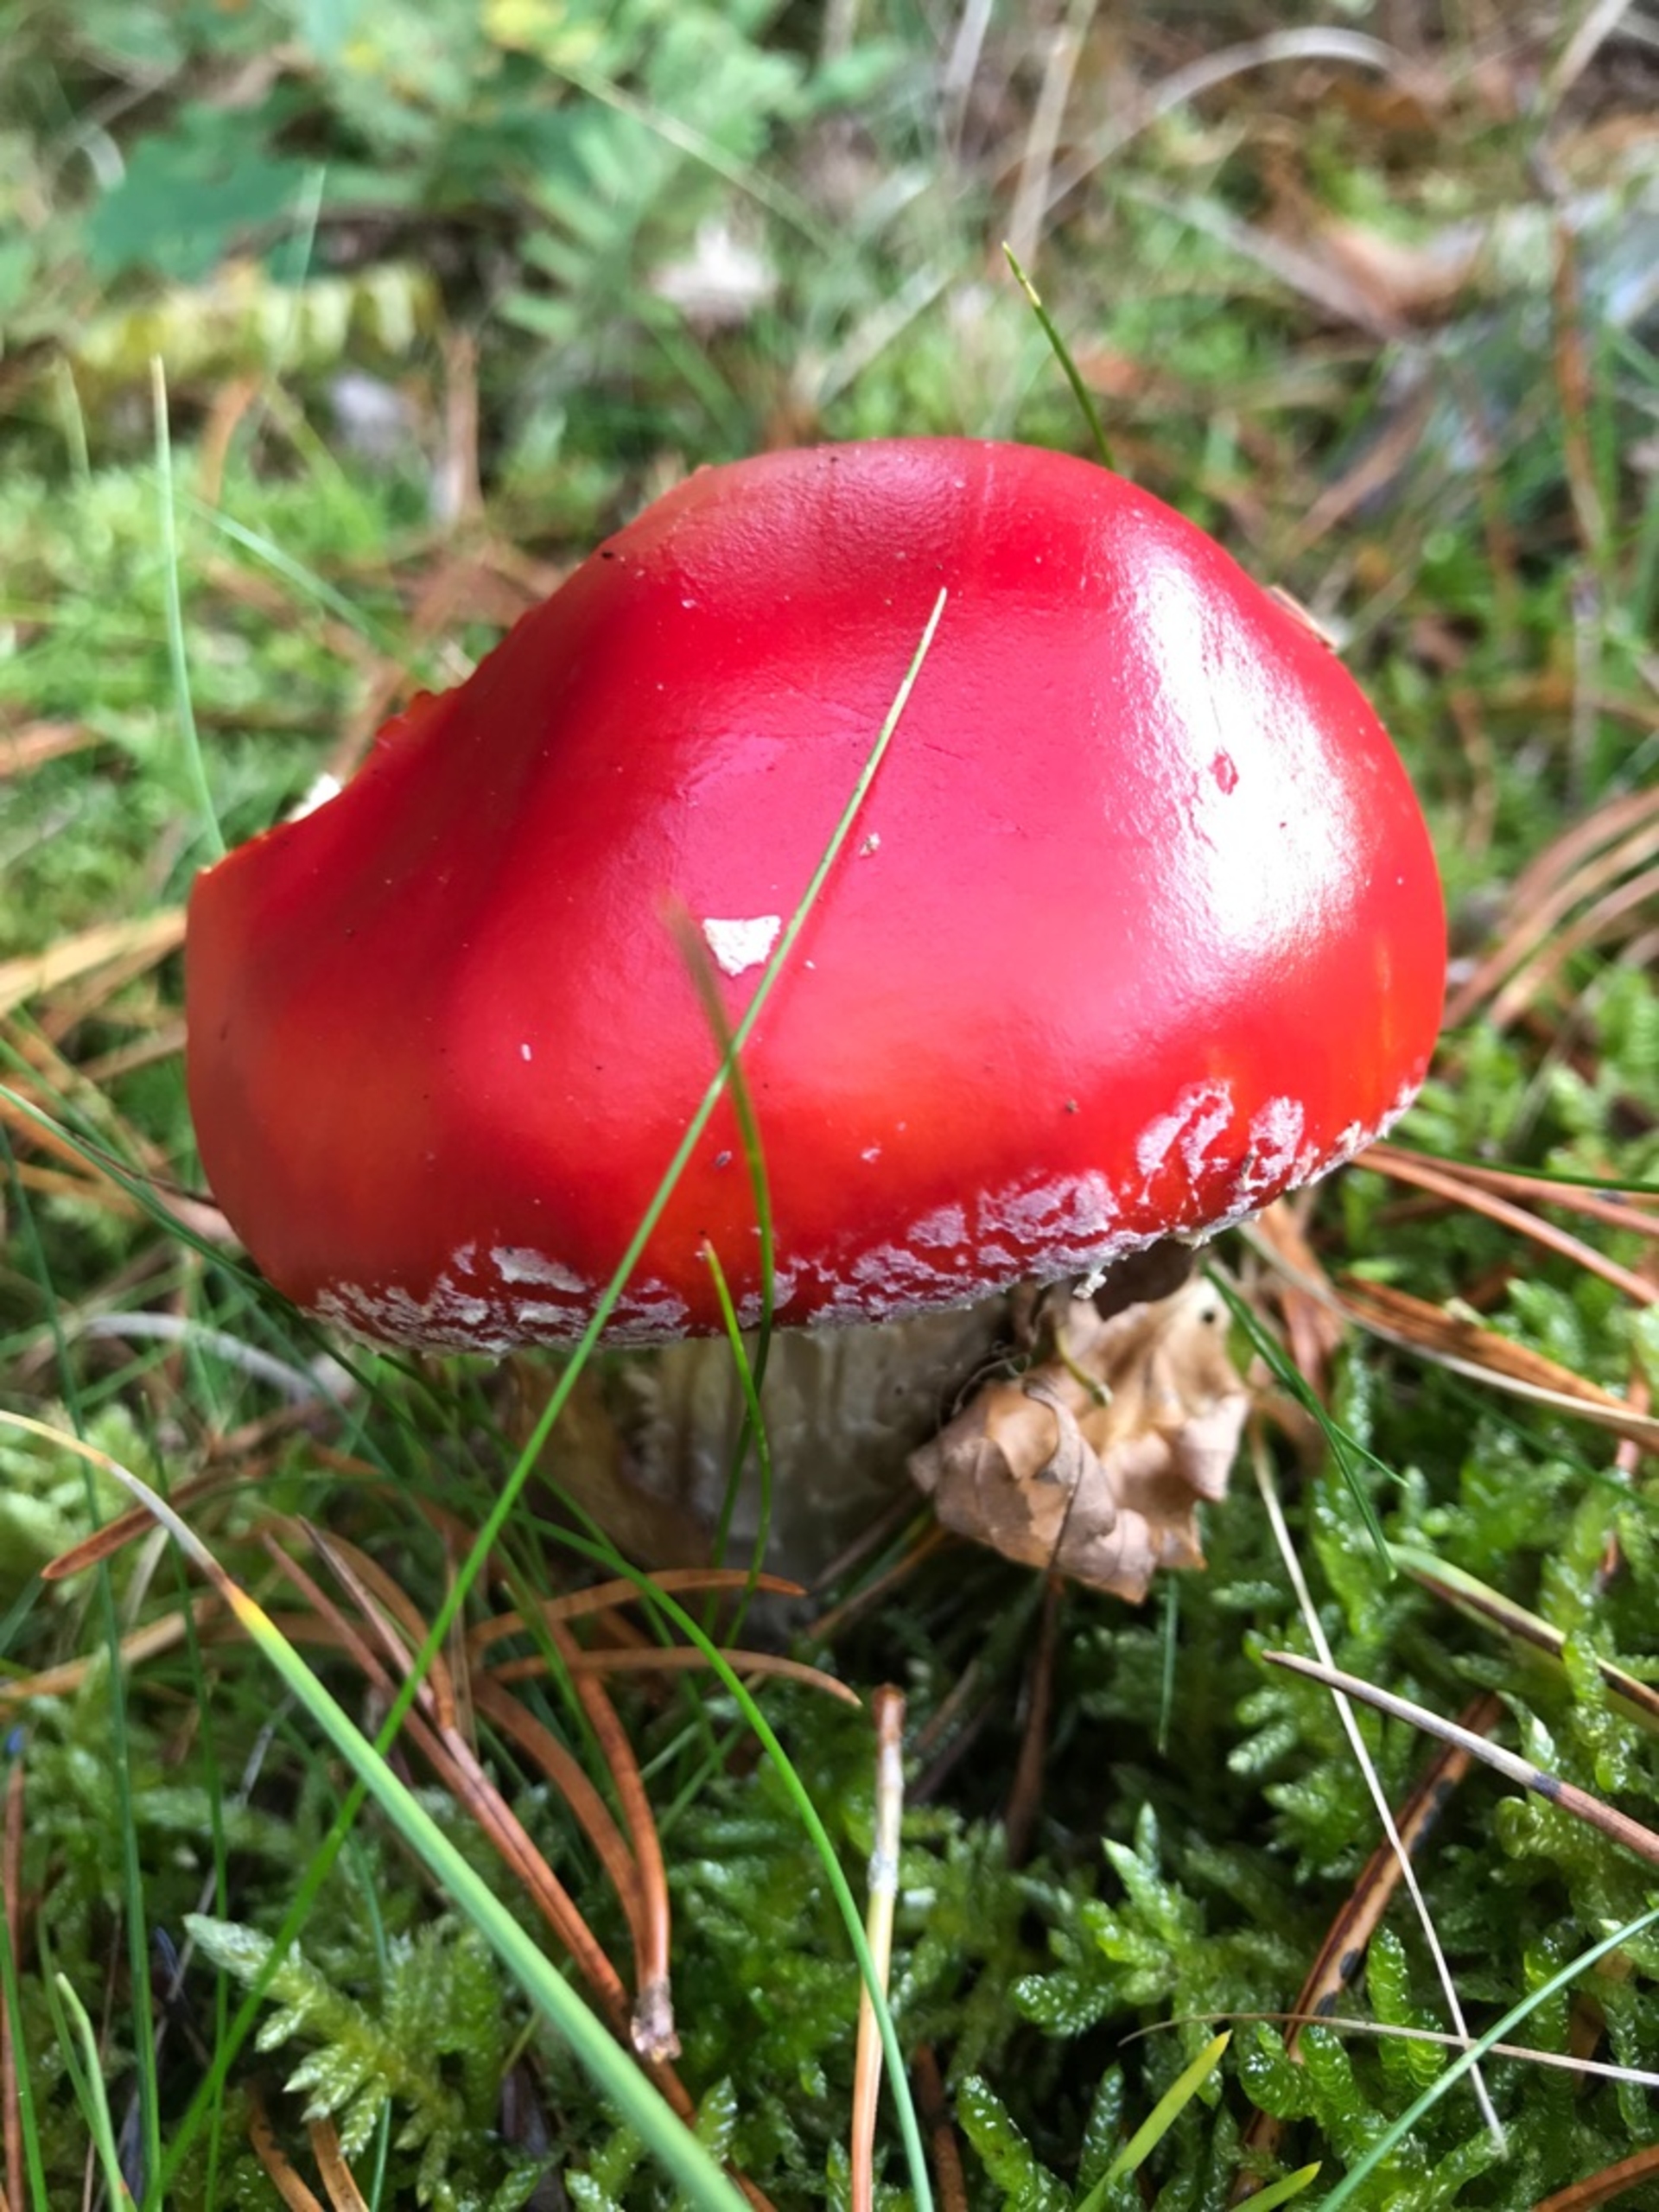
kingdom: Fungi
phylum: Basidiomycota
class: Agaricomycetes
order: Agaricales
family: Amanitaceae
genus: Amanita
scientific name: Amanita muscaria
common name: Rød fluesvamp
